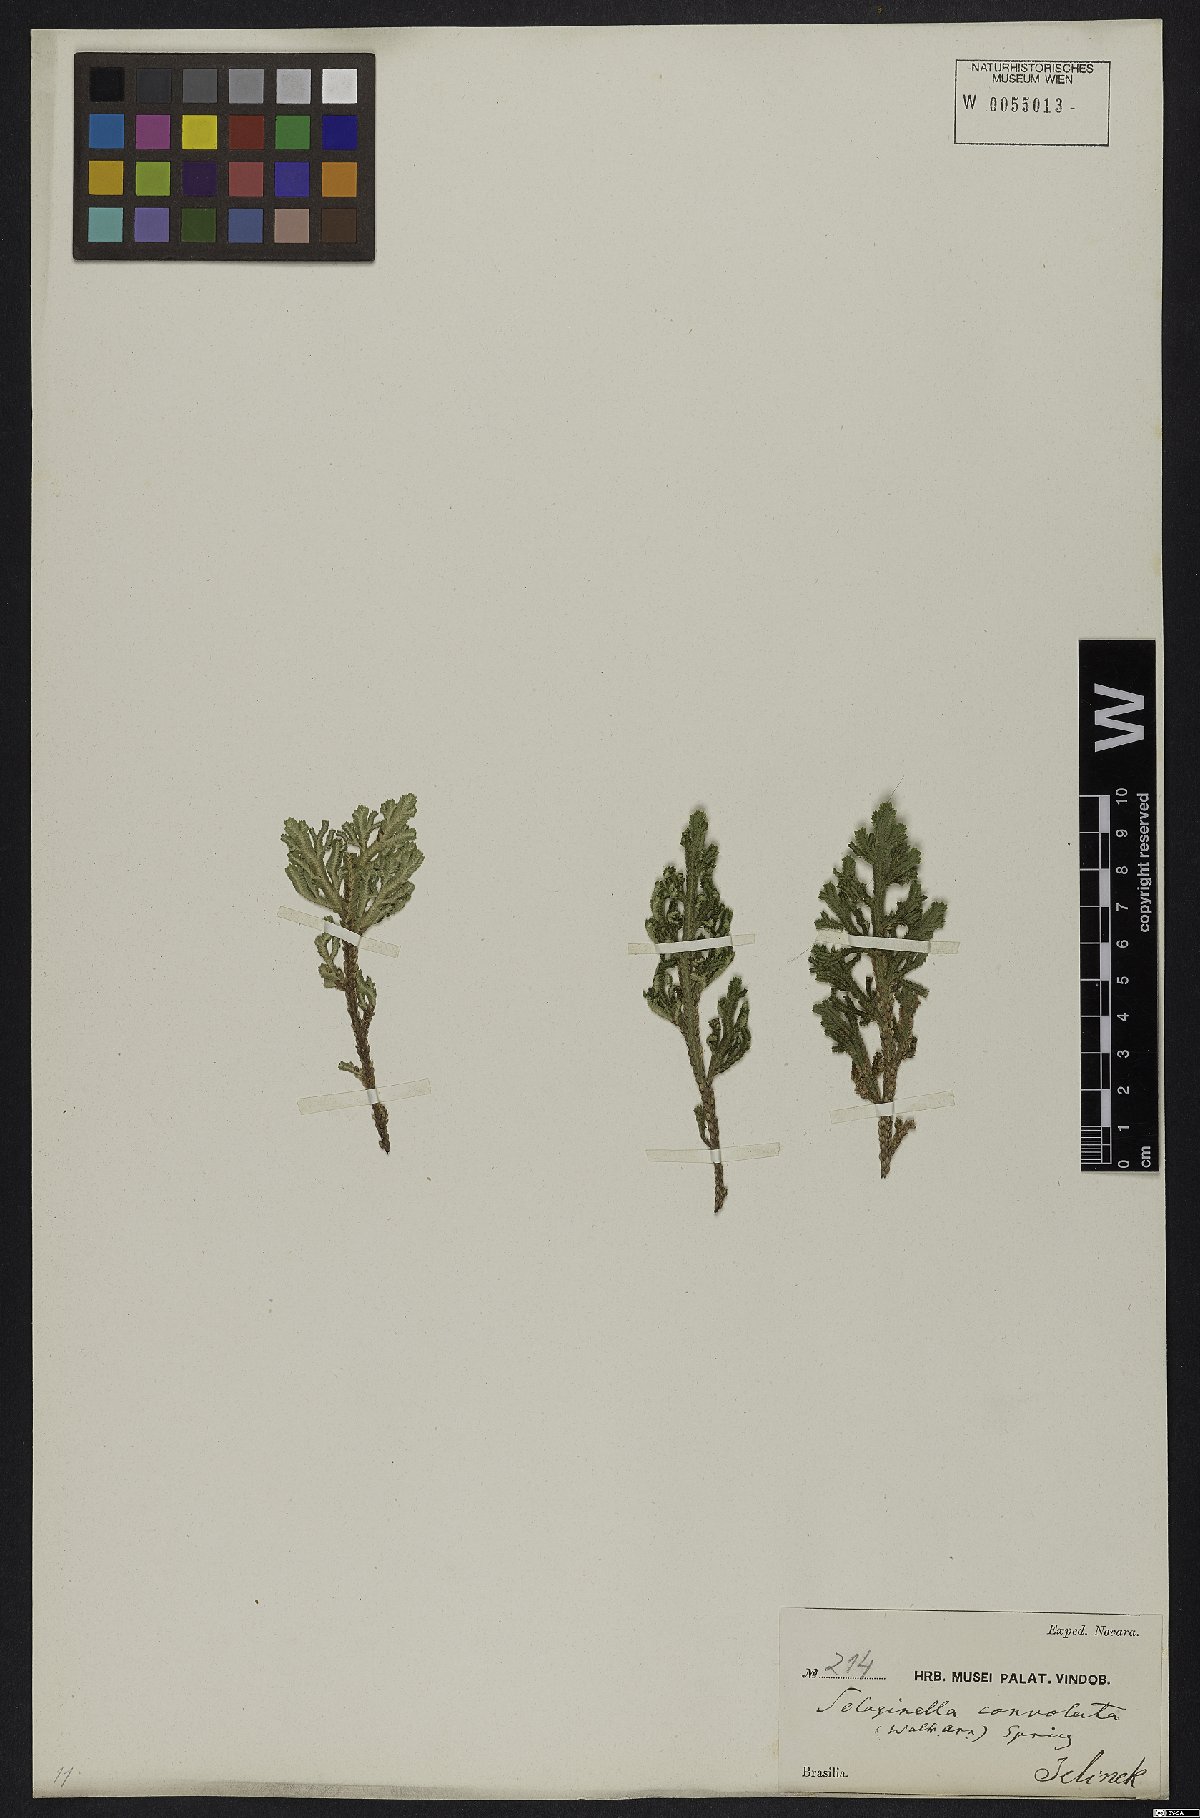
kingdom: Plantae
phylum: Tracheophyta
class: Lycopodiopsida
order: Selaginellales
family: Selaginellaceae
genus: Selaginella
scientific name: Selaginella convoluta
